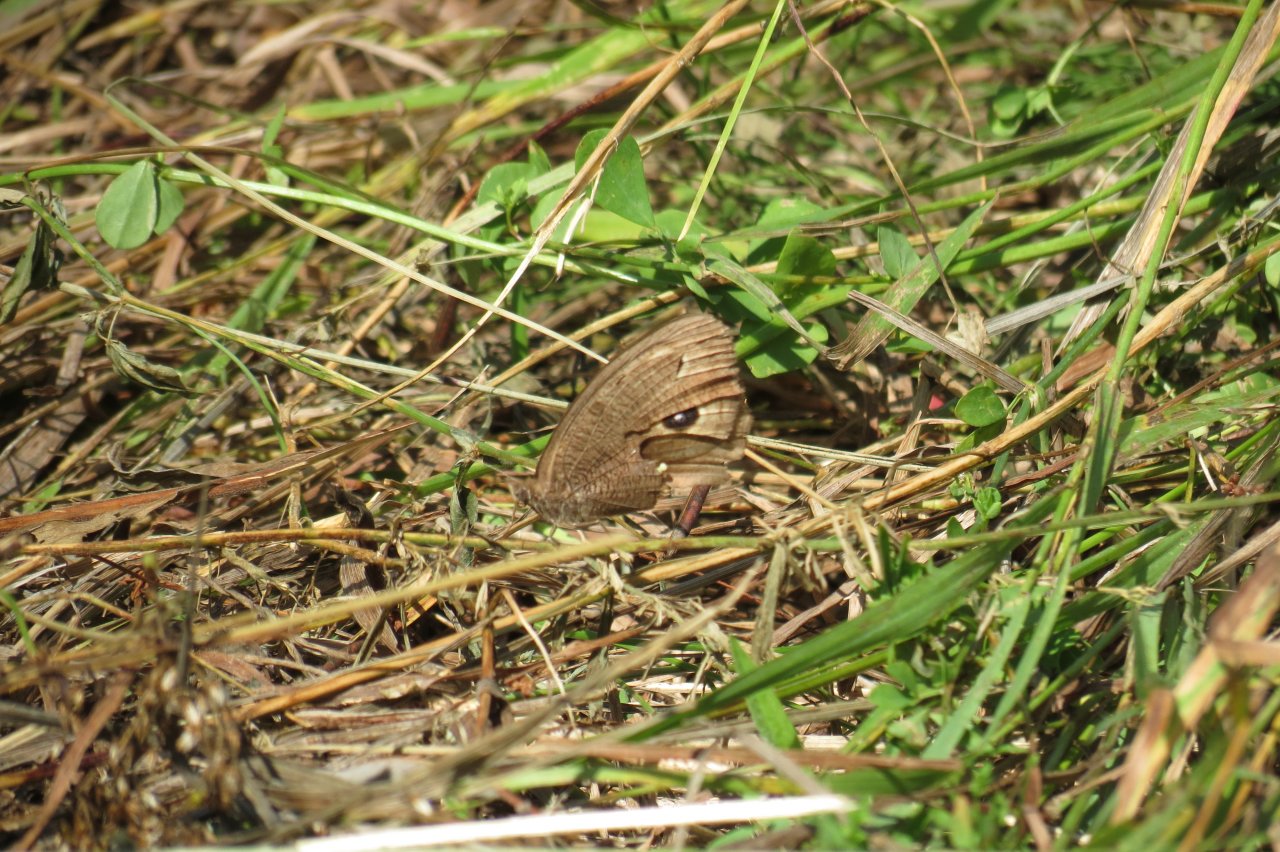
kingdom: Animalia
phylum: Arthropoda
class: Insecta
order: Lepidoptera
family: Nymphalidae
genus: Cercyonis
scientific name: Cercyonis pegala
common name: Common Wood-Nymph
